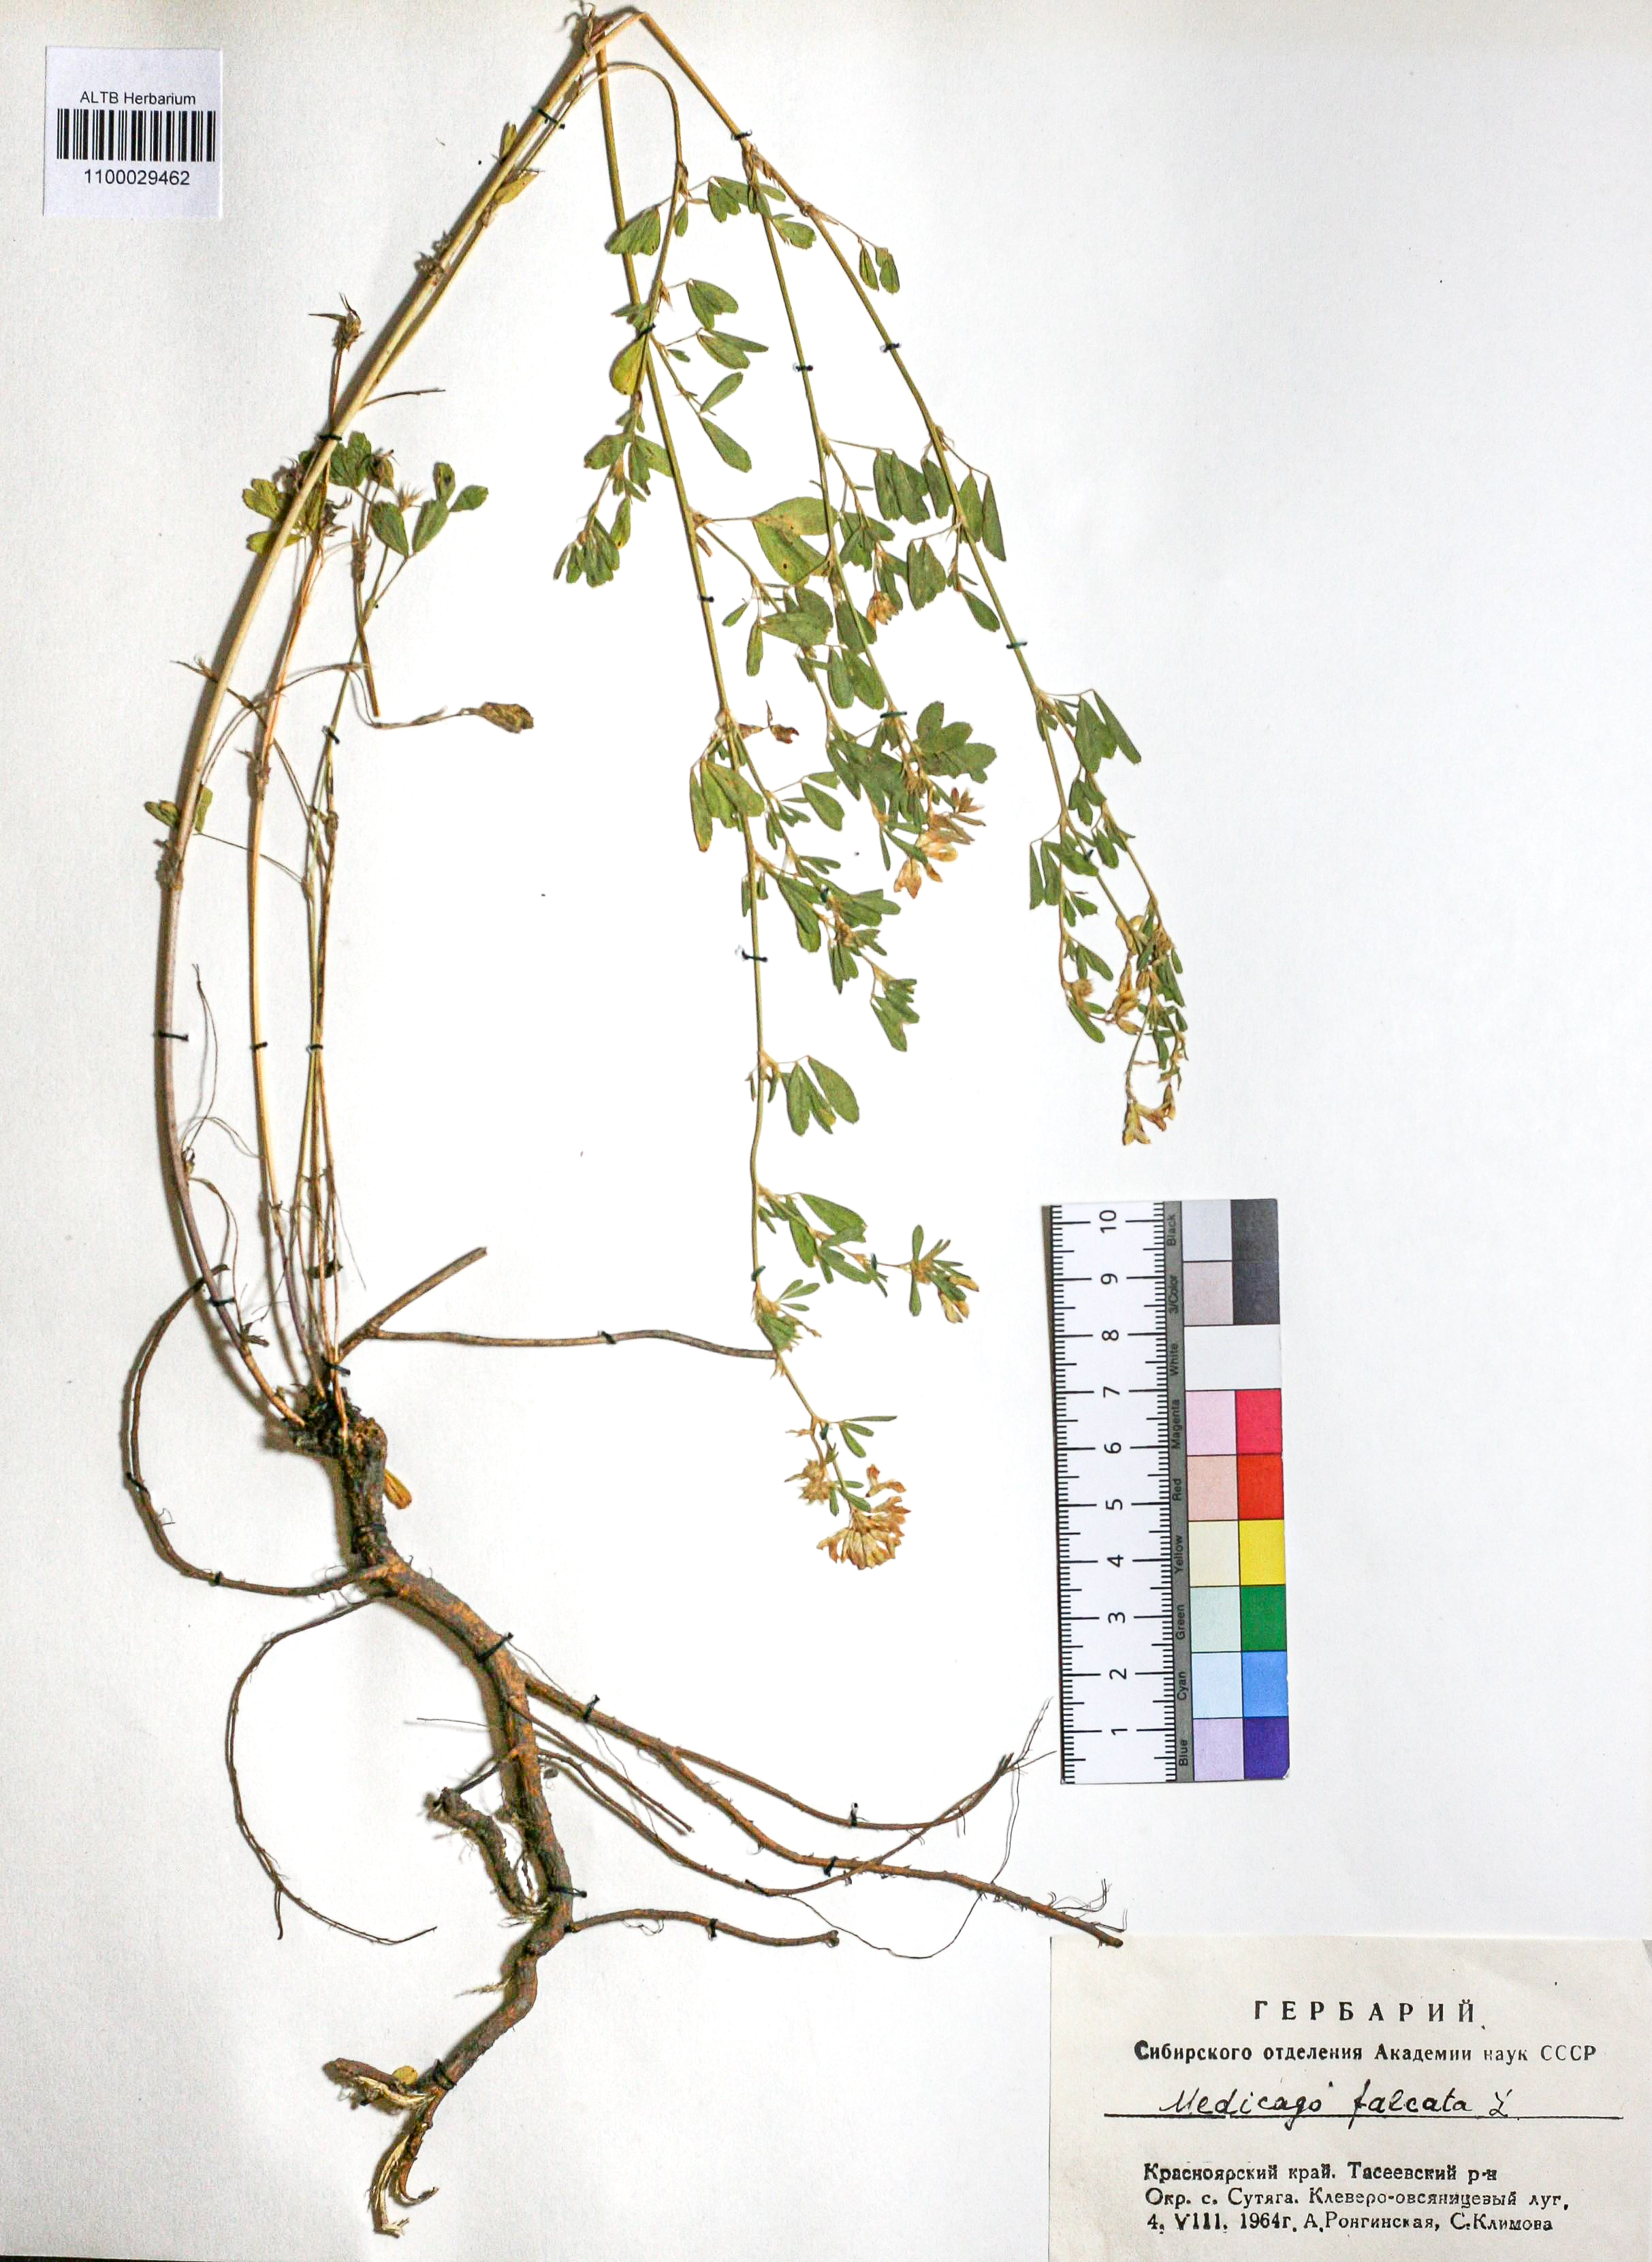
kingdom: Plantae
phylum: Tracheophyta
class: Magnoliopsida
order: Fabales
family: Fabaceae
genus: Medicago
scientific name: Medicago falcata
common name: Sickle medick
